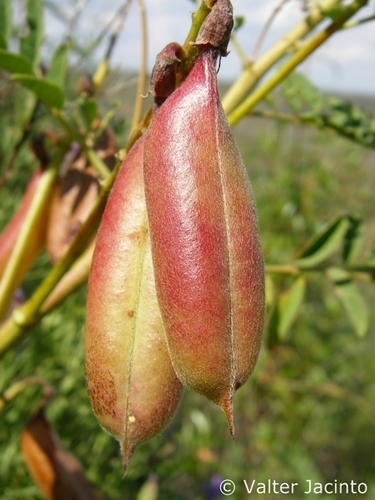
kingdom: Plantae
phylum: Tracheophyta
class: Magnoliopsida
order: Fabales
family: Fabaceae
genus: Erophaca
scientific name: Erophaca baetica
